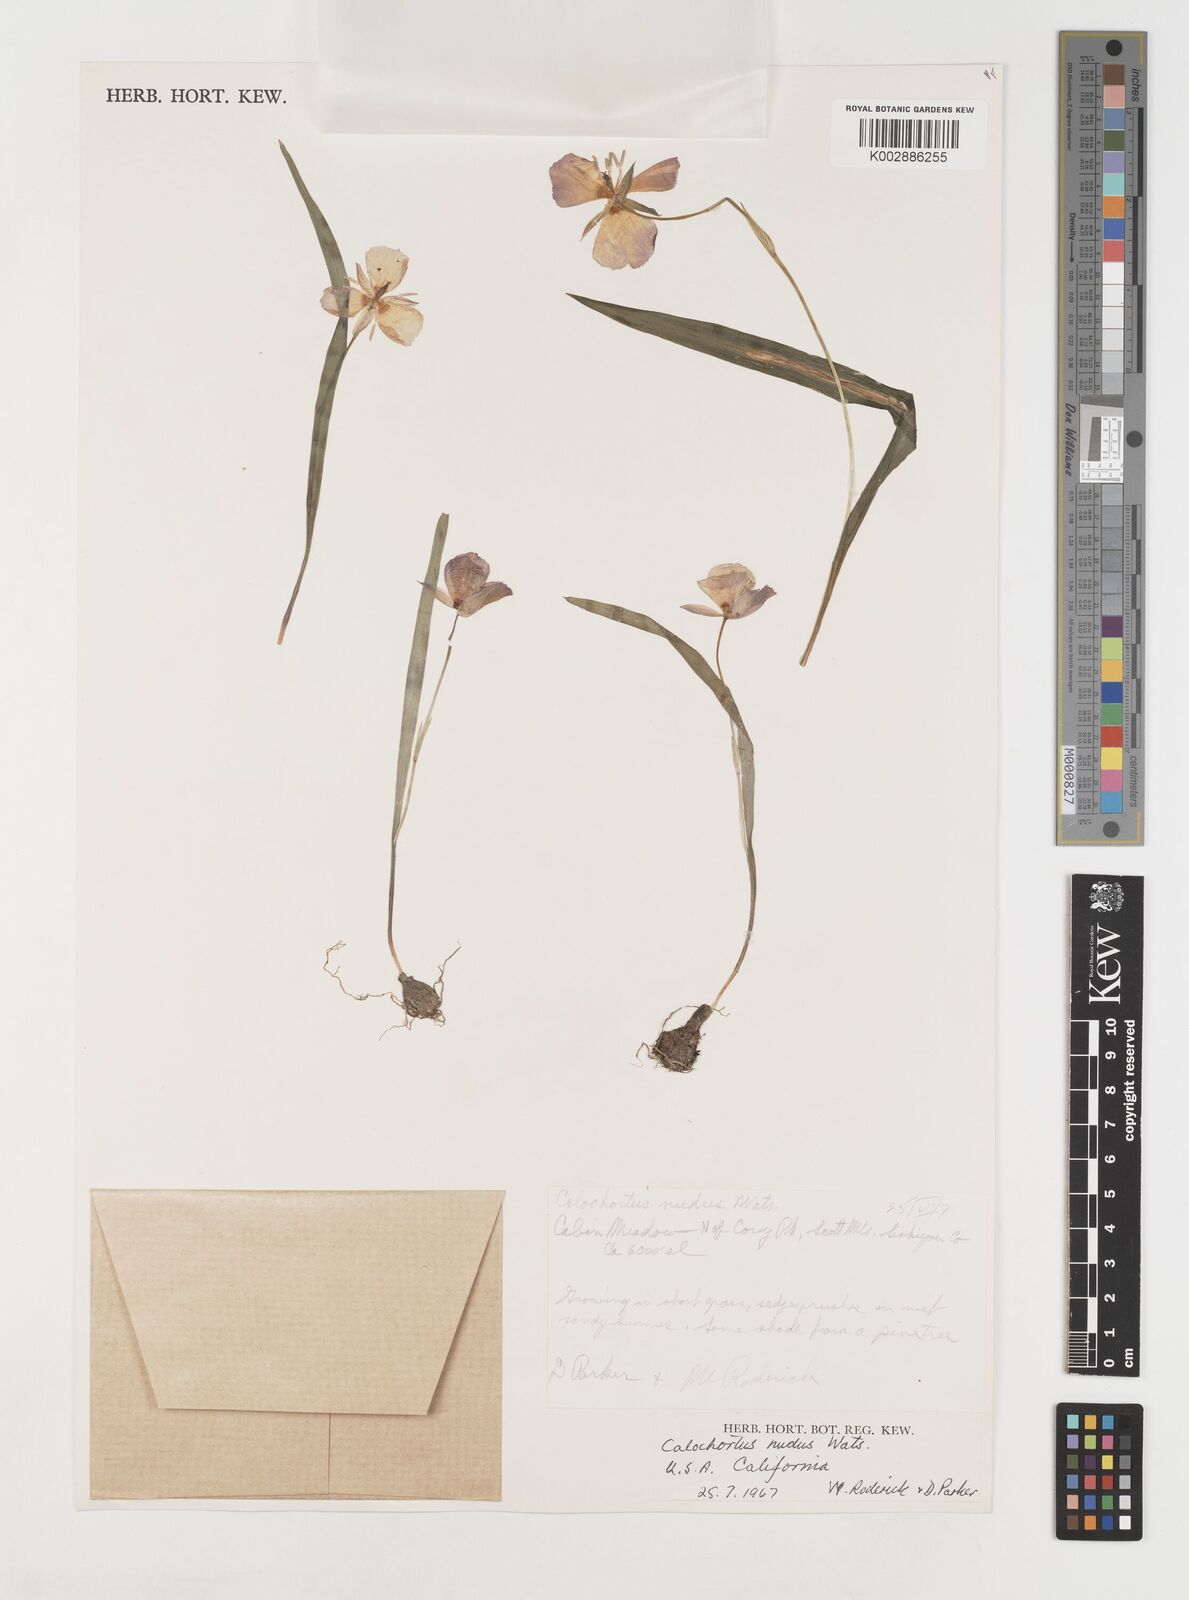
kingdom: Plantae
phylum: Tracheophyta
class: Liliopsida
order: Liliales
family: Liliaceae
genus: Calochortus
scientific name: Calochortus nudus
